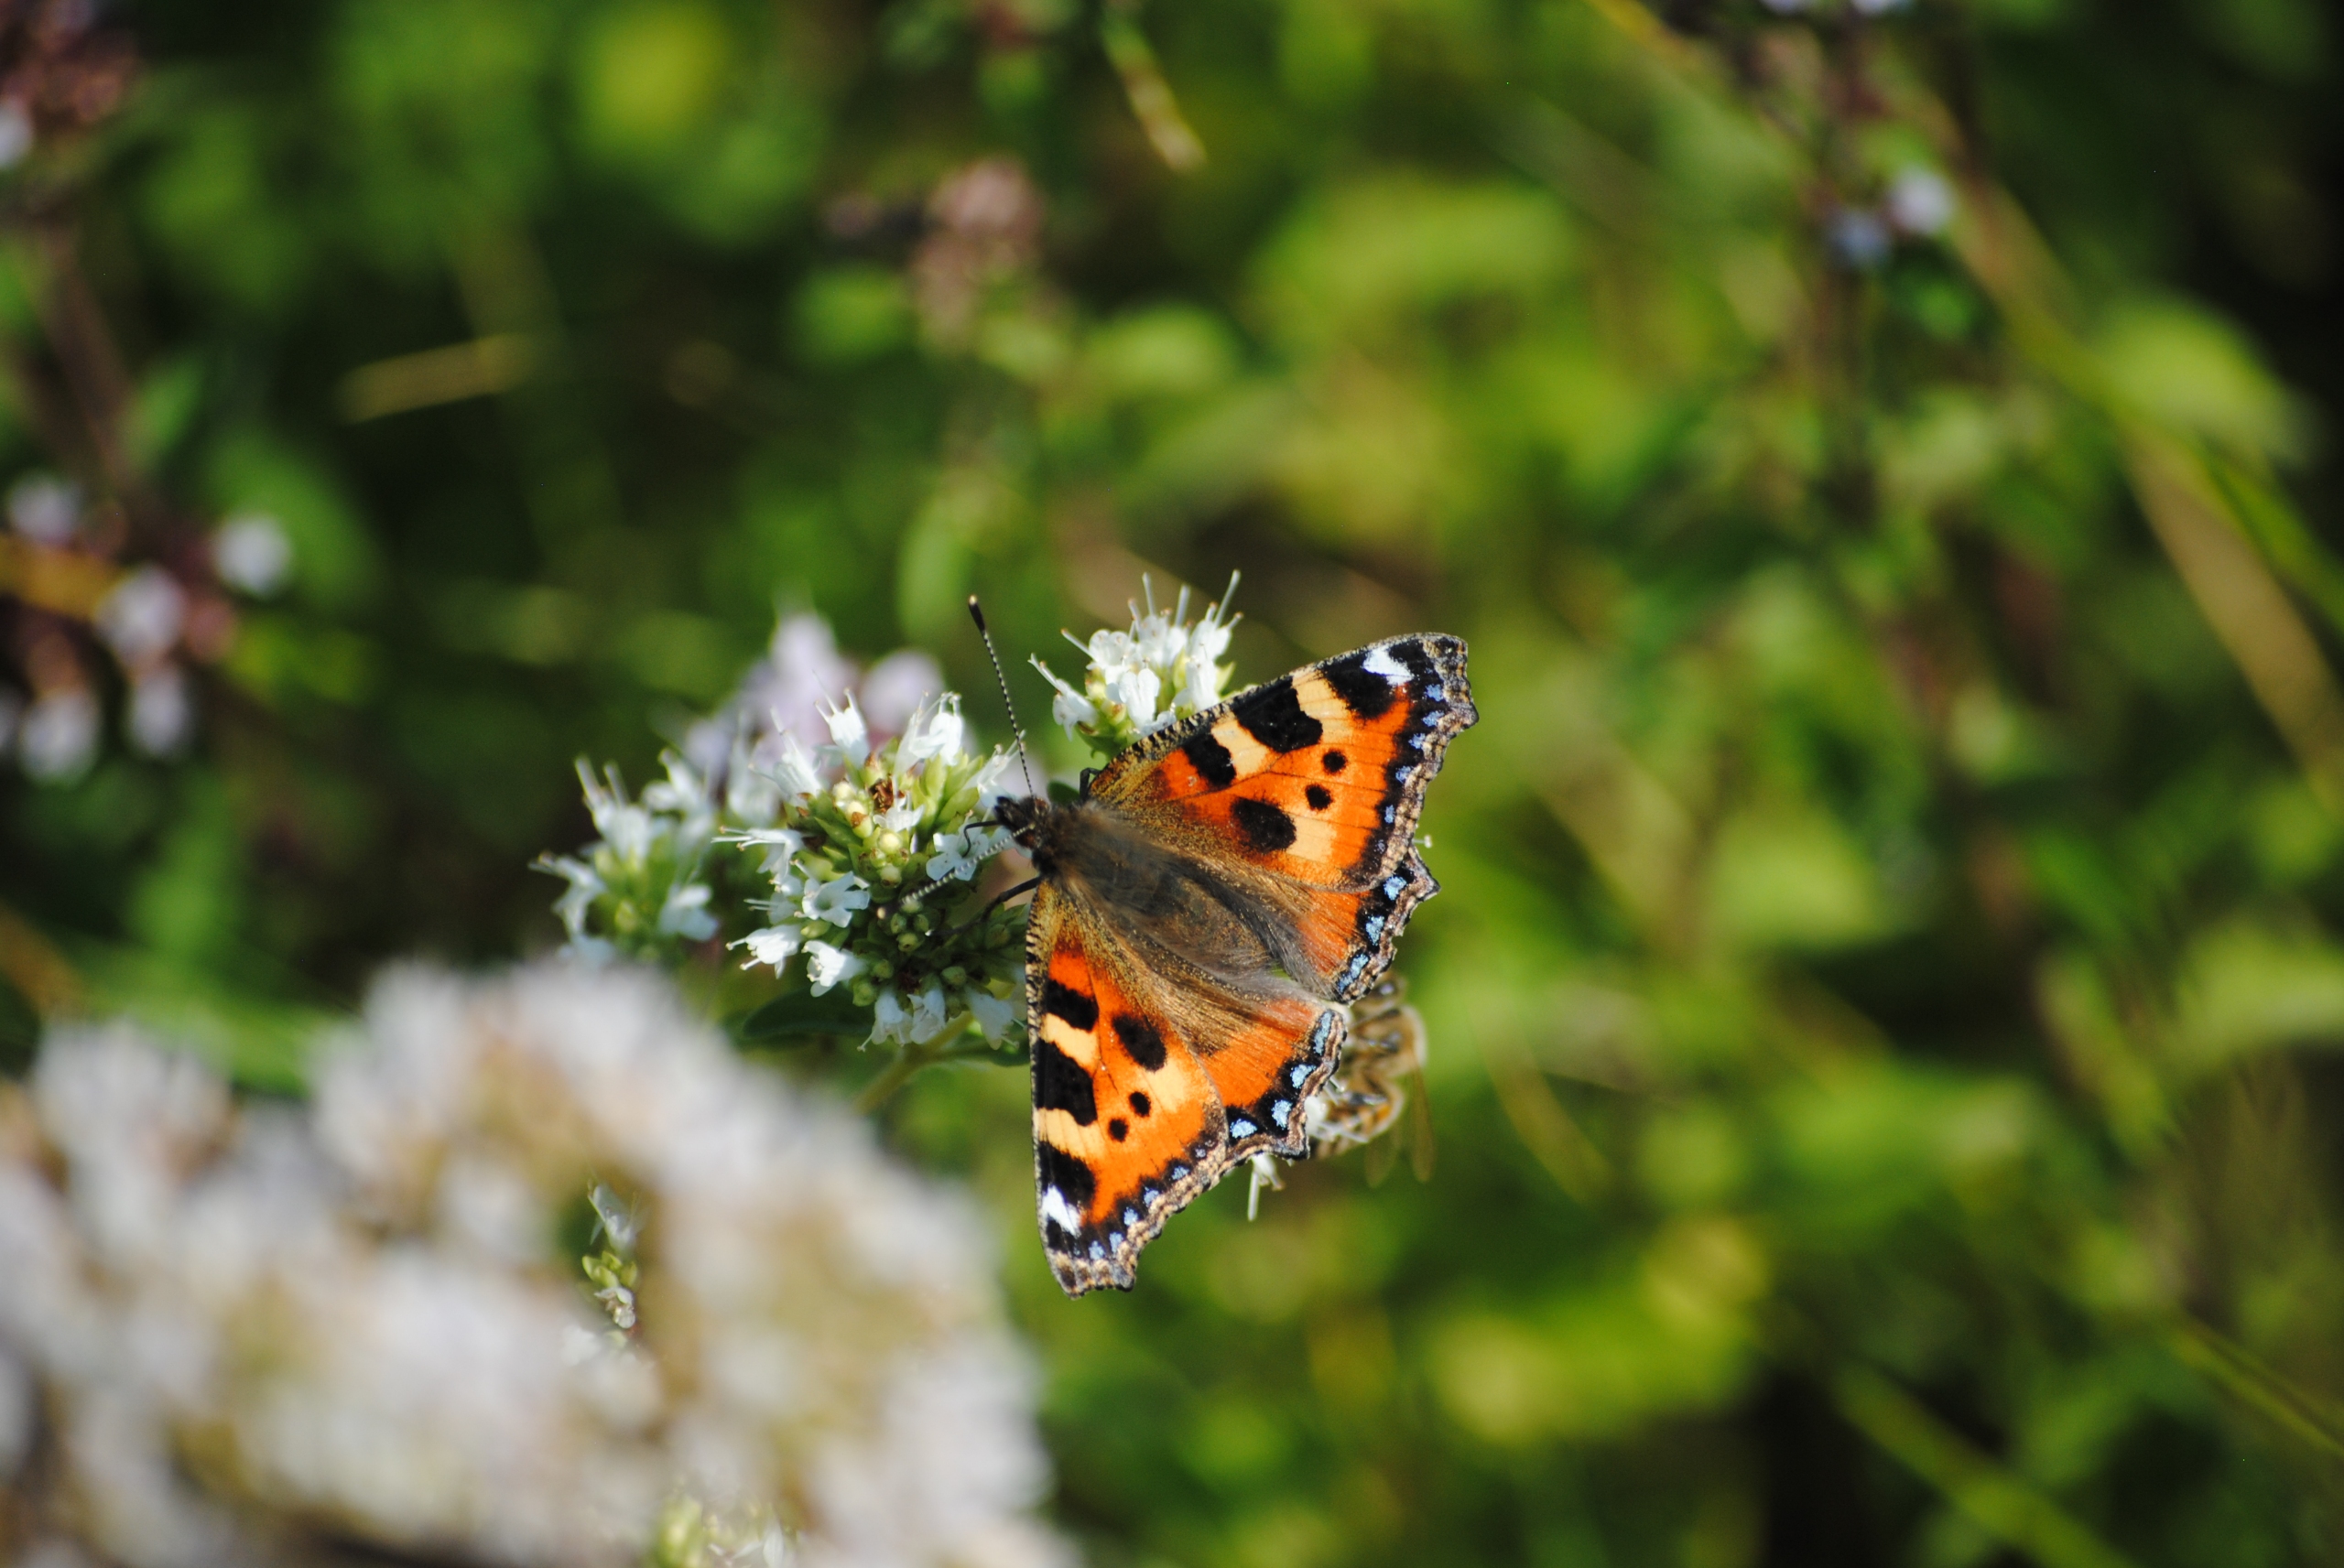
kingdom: Animalia
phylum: Arthropoda
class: Insecta
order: Lepidoptera
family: Nymphalidae
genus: Aglais
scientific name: Aglais urticae
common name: Nældens takvinge
